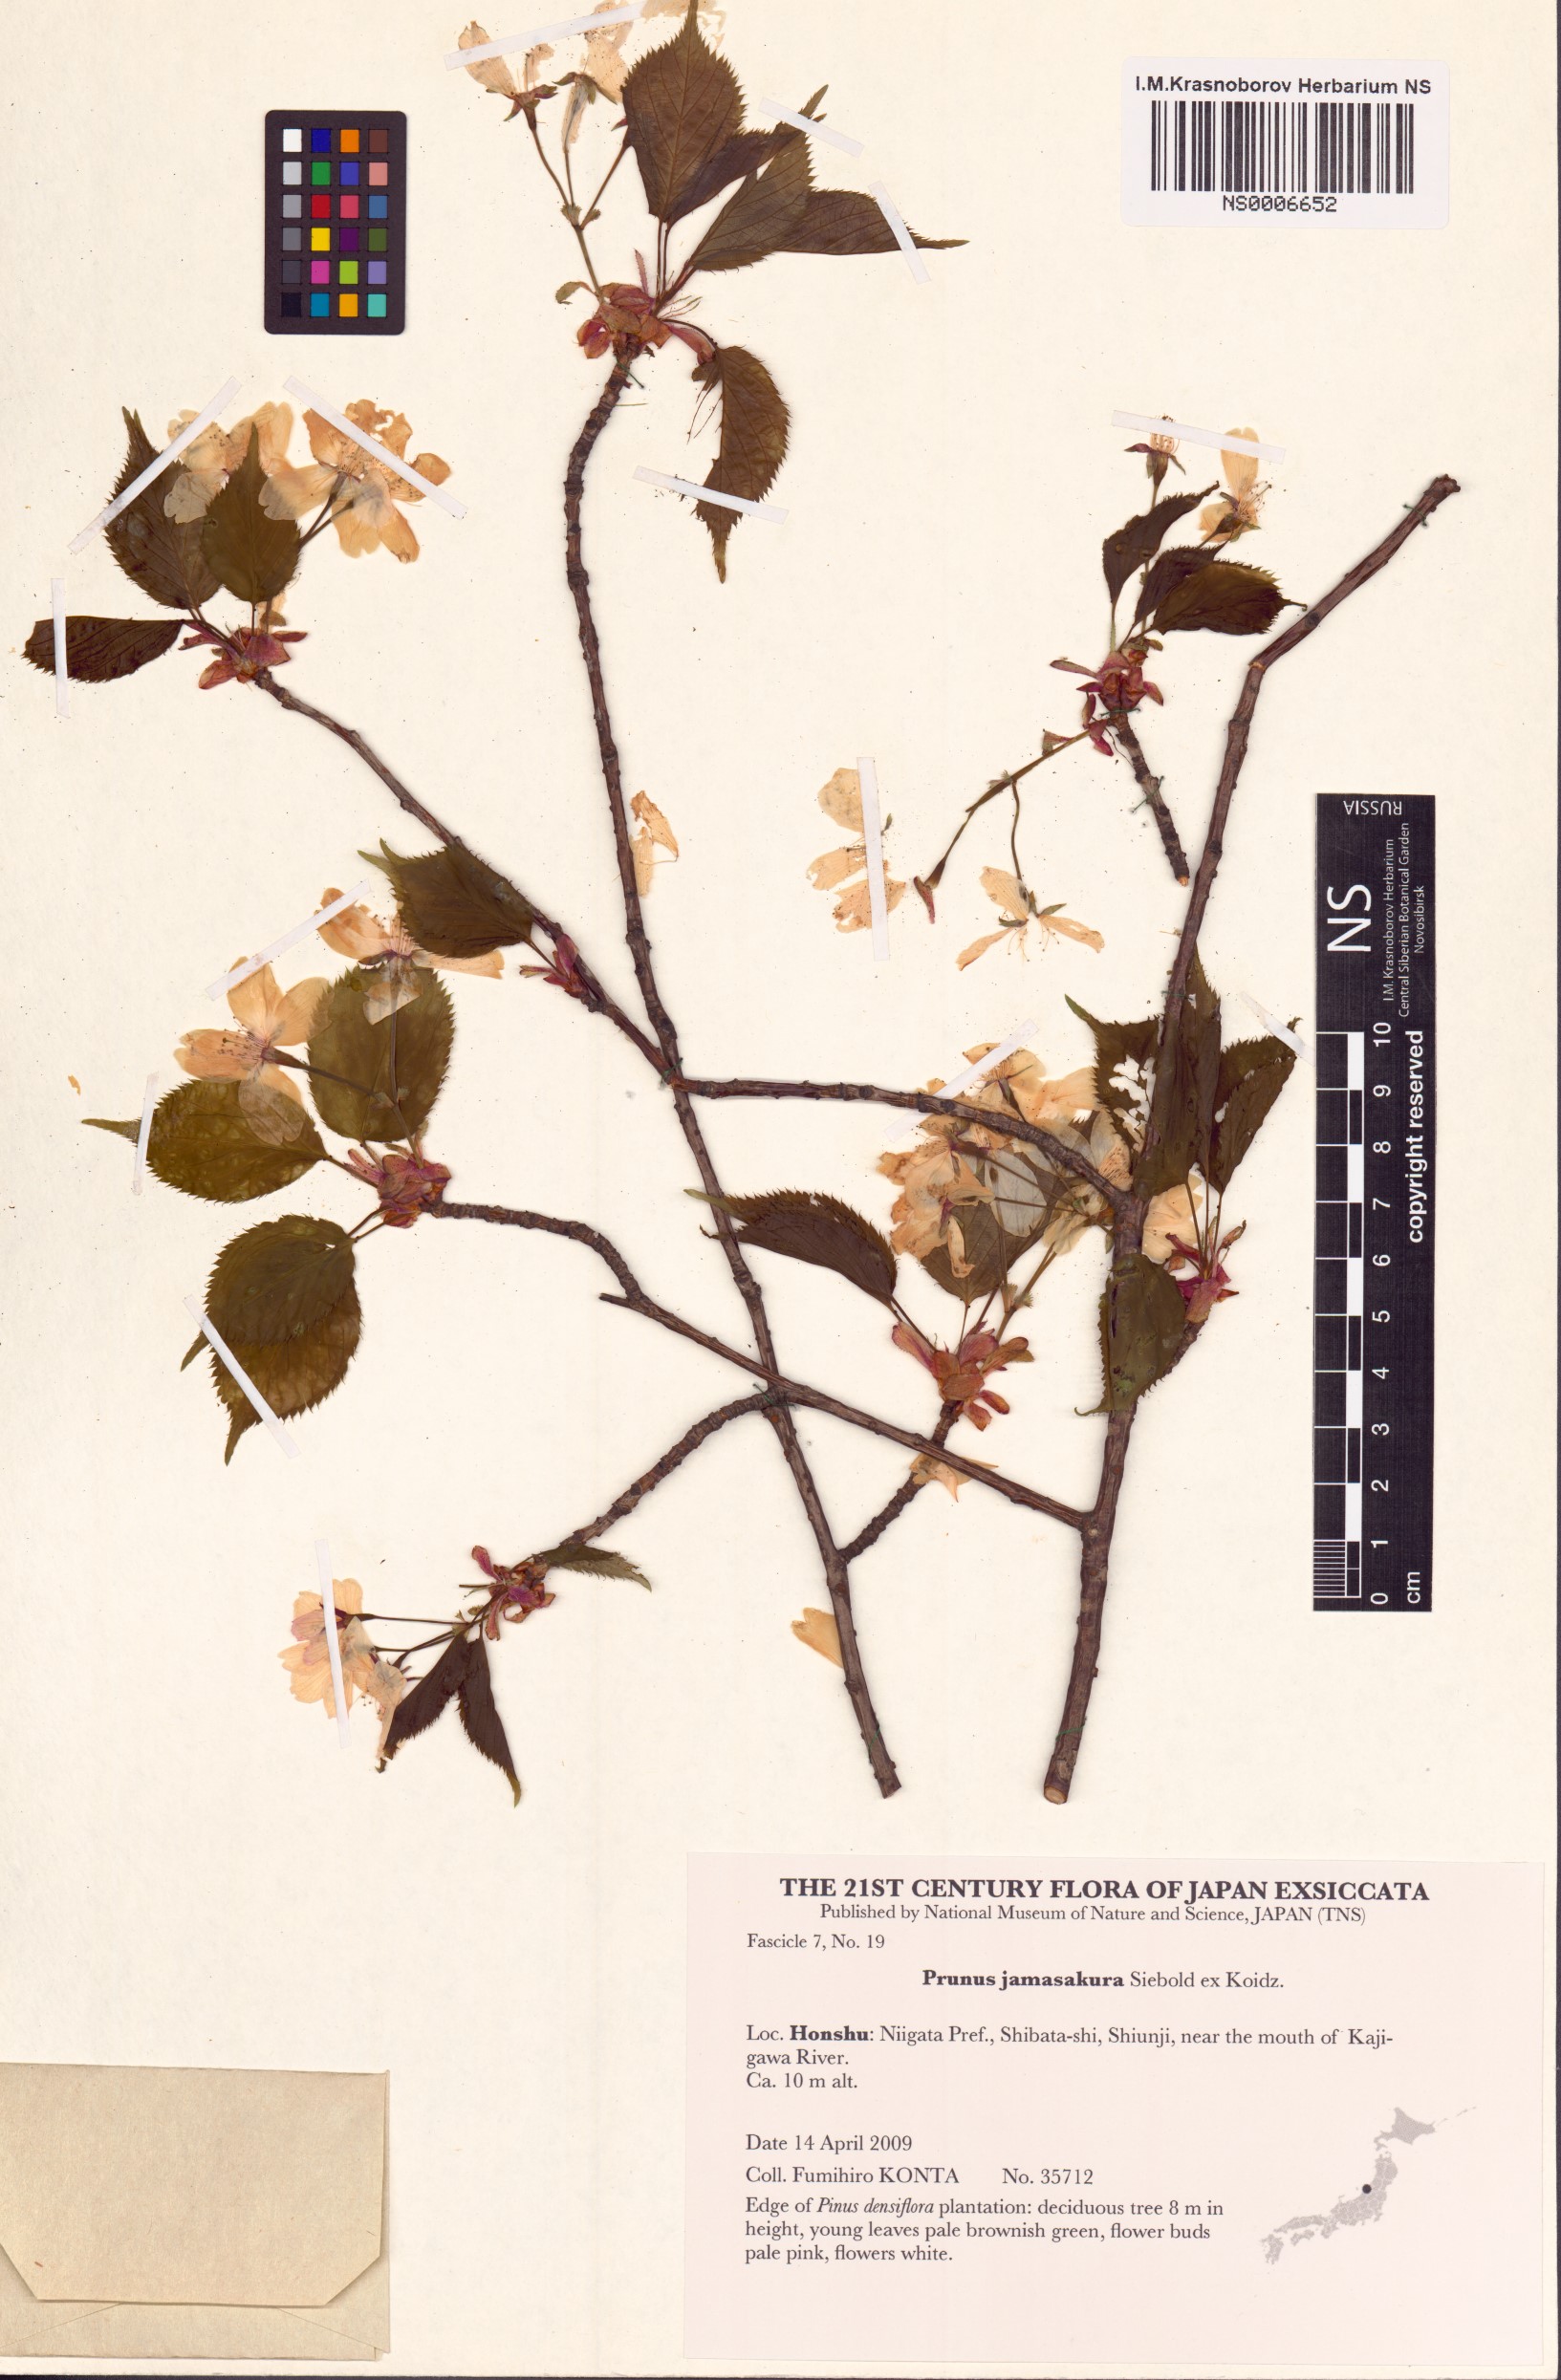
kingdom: Plantae
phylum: Tracheophyta
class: Magnoliopsida
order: Rosales
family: Rosaceae
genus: Prunus
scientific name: Prunus jamasakura
